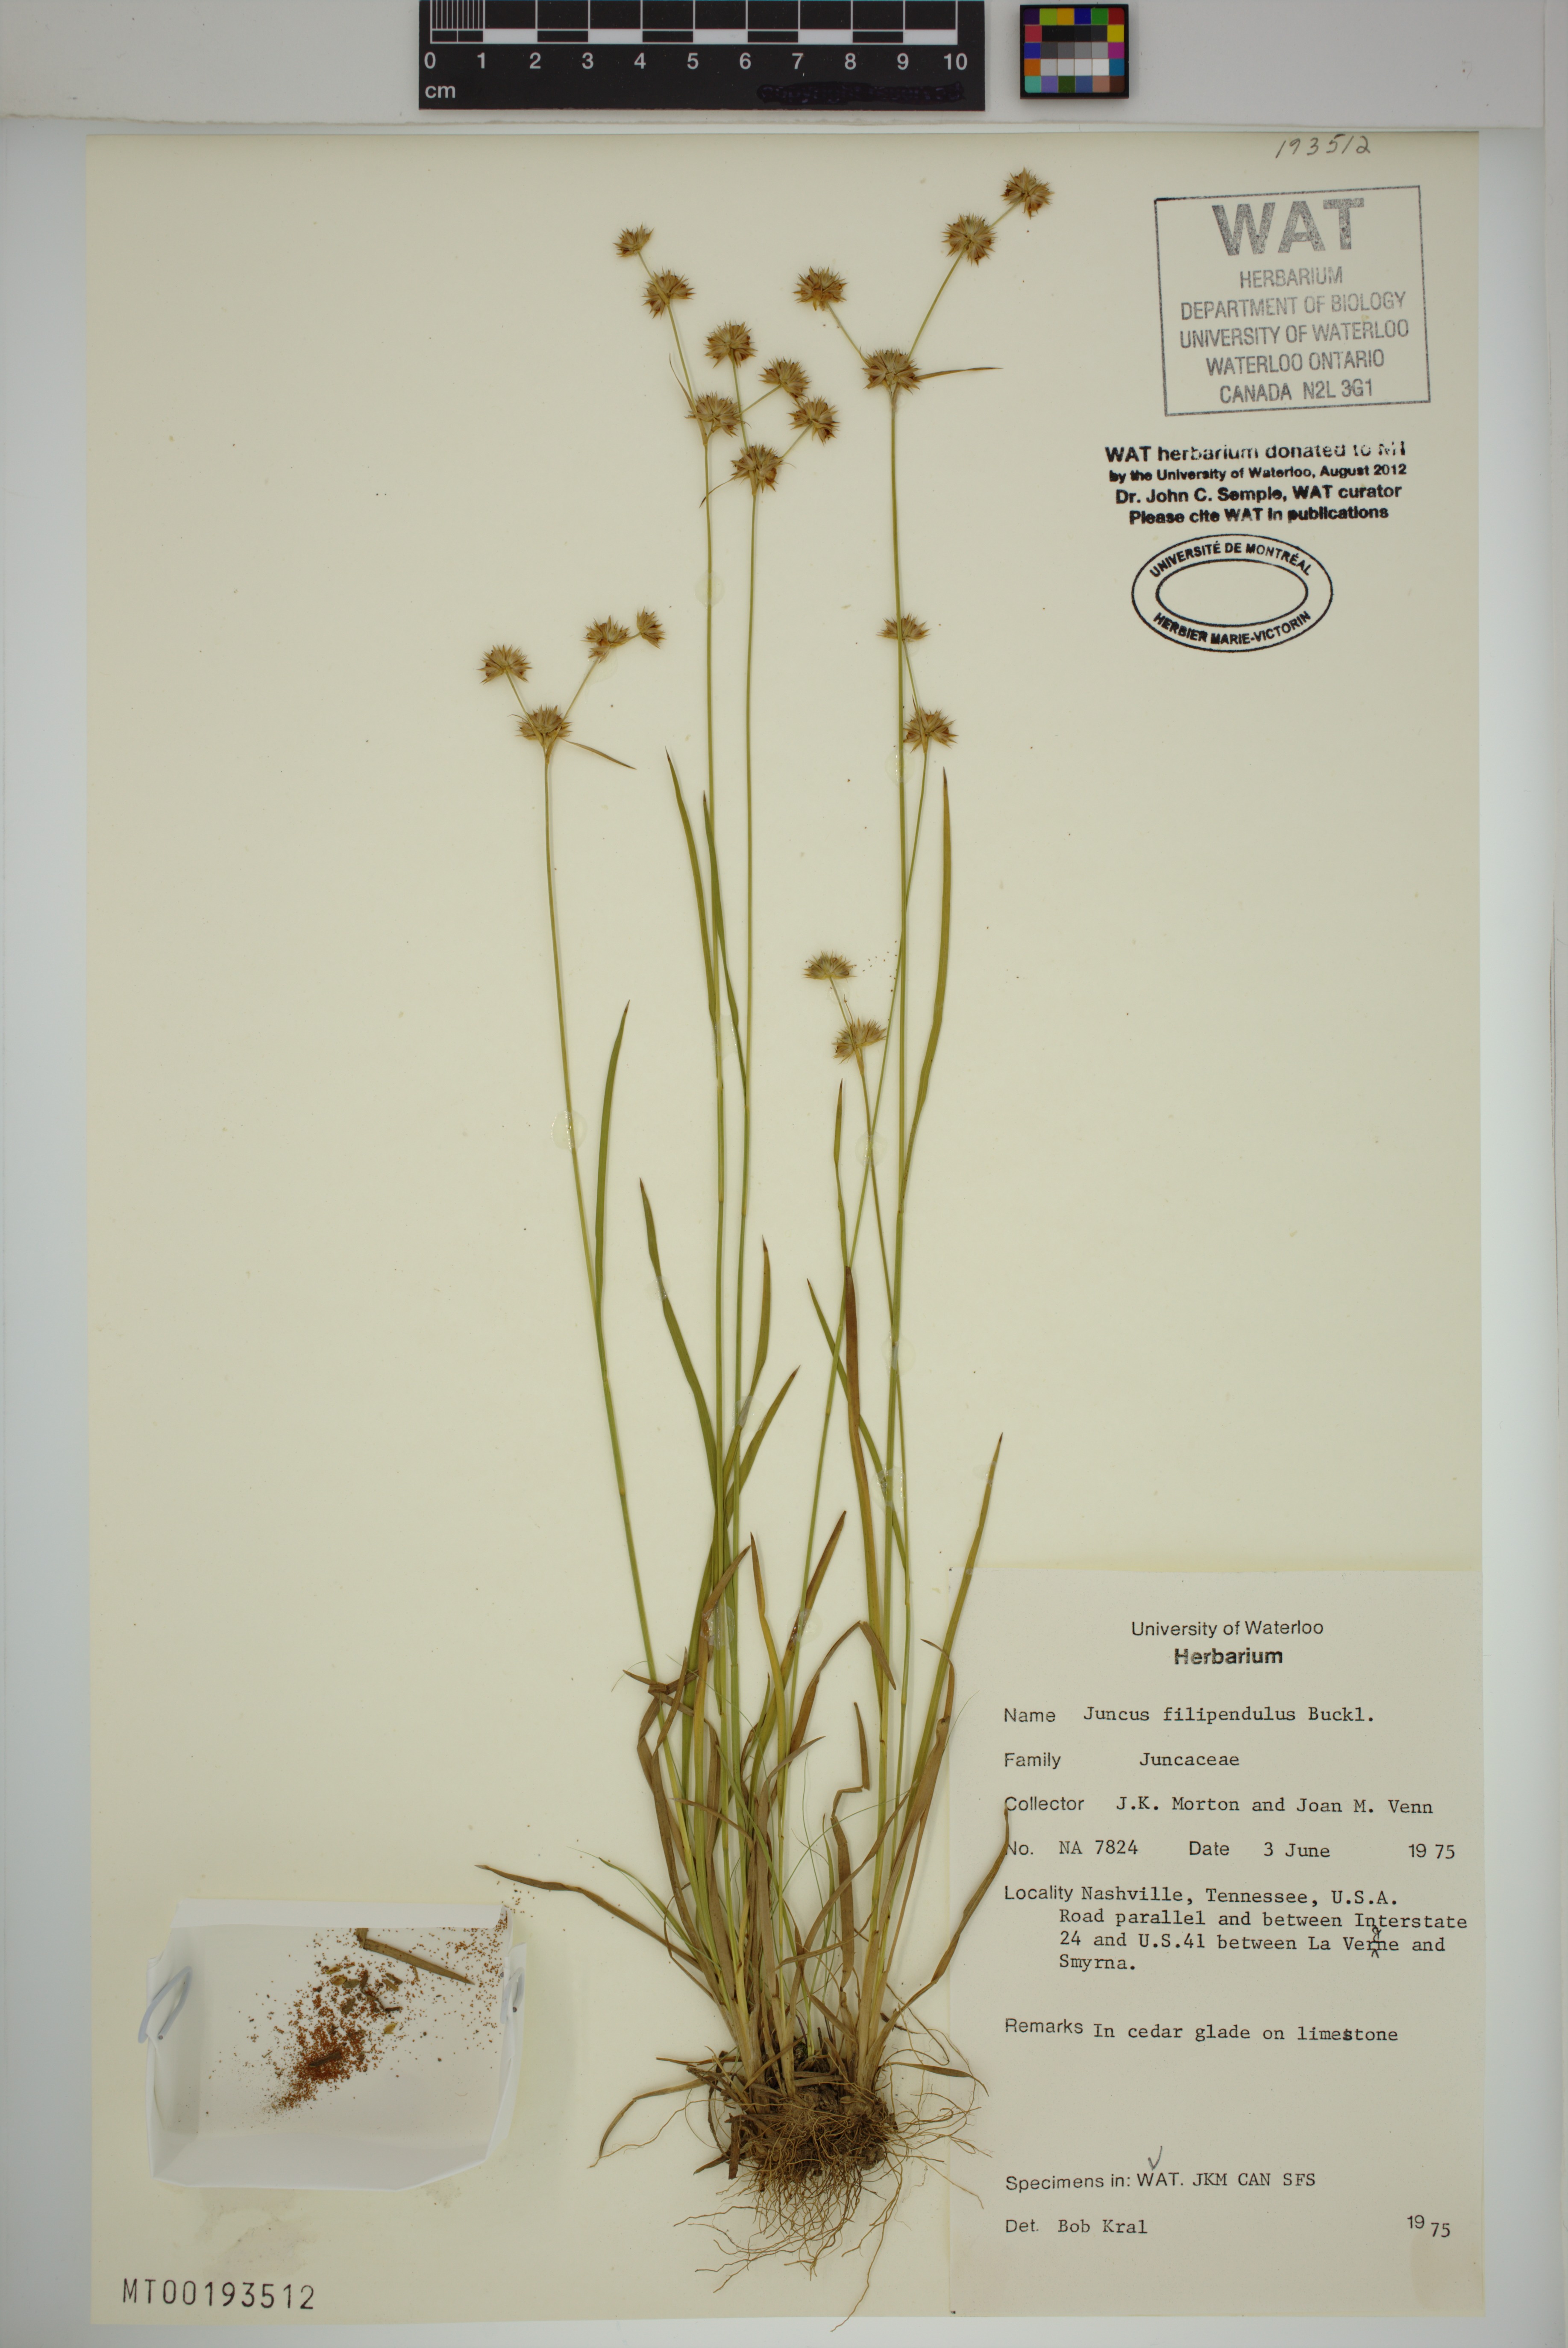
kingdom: Plantae
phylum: Tracheophyta
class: Liliopsida
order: Poales
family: Juncaceae
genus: Juncus
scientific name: Juncus filipendulus
